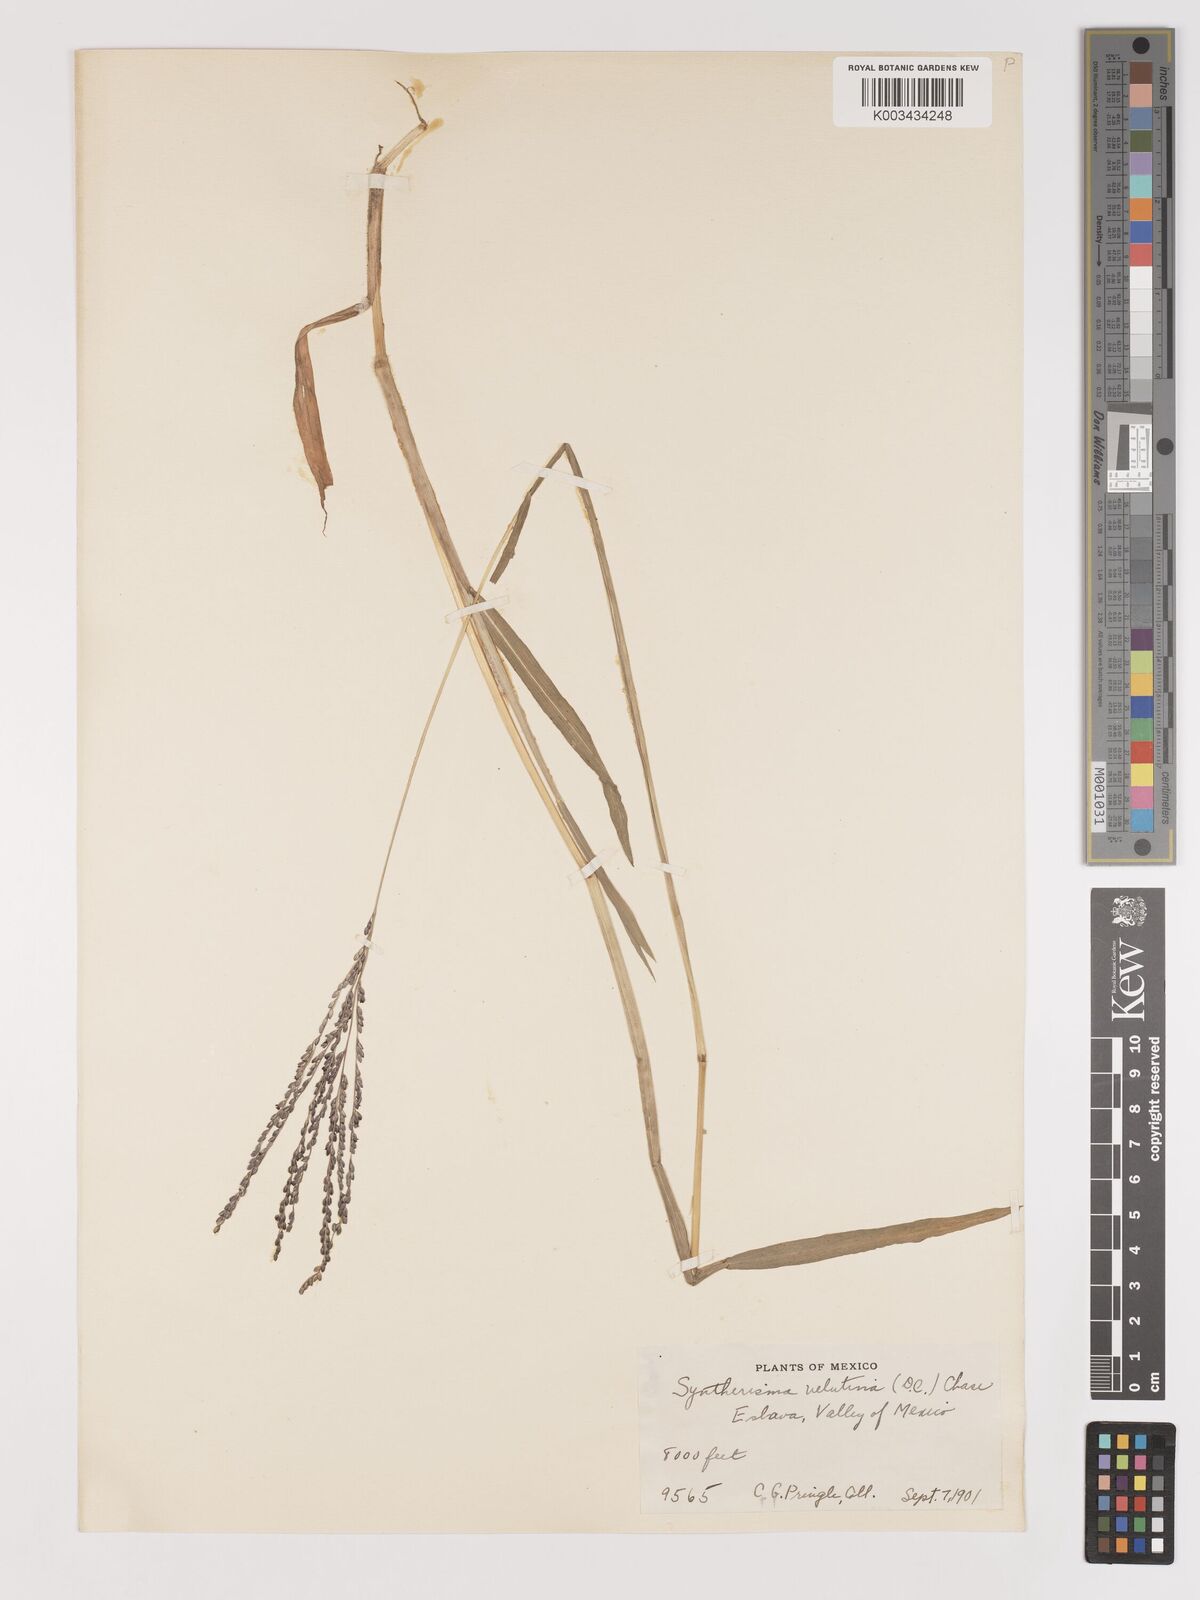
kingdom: Plantae
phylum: Tracheophyta
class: Liliopsida
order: Poales
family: Poaceae
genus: Digitaria
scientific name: Digitaria leucites
